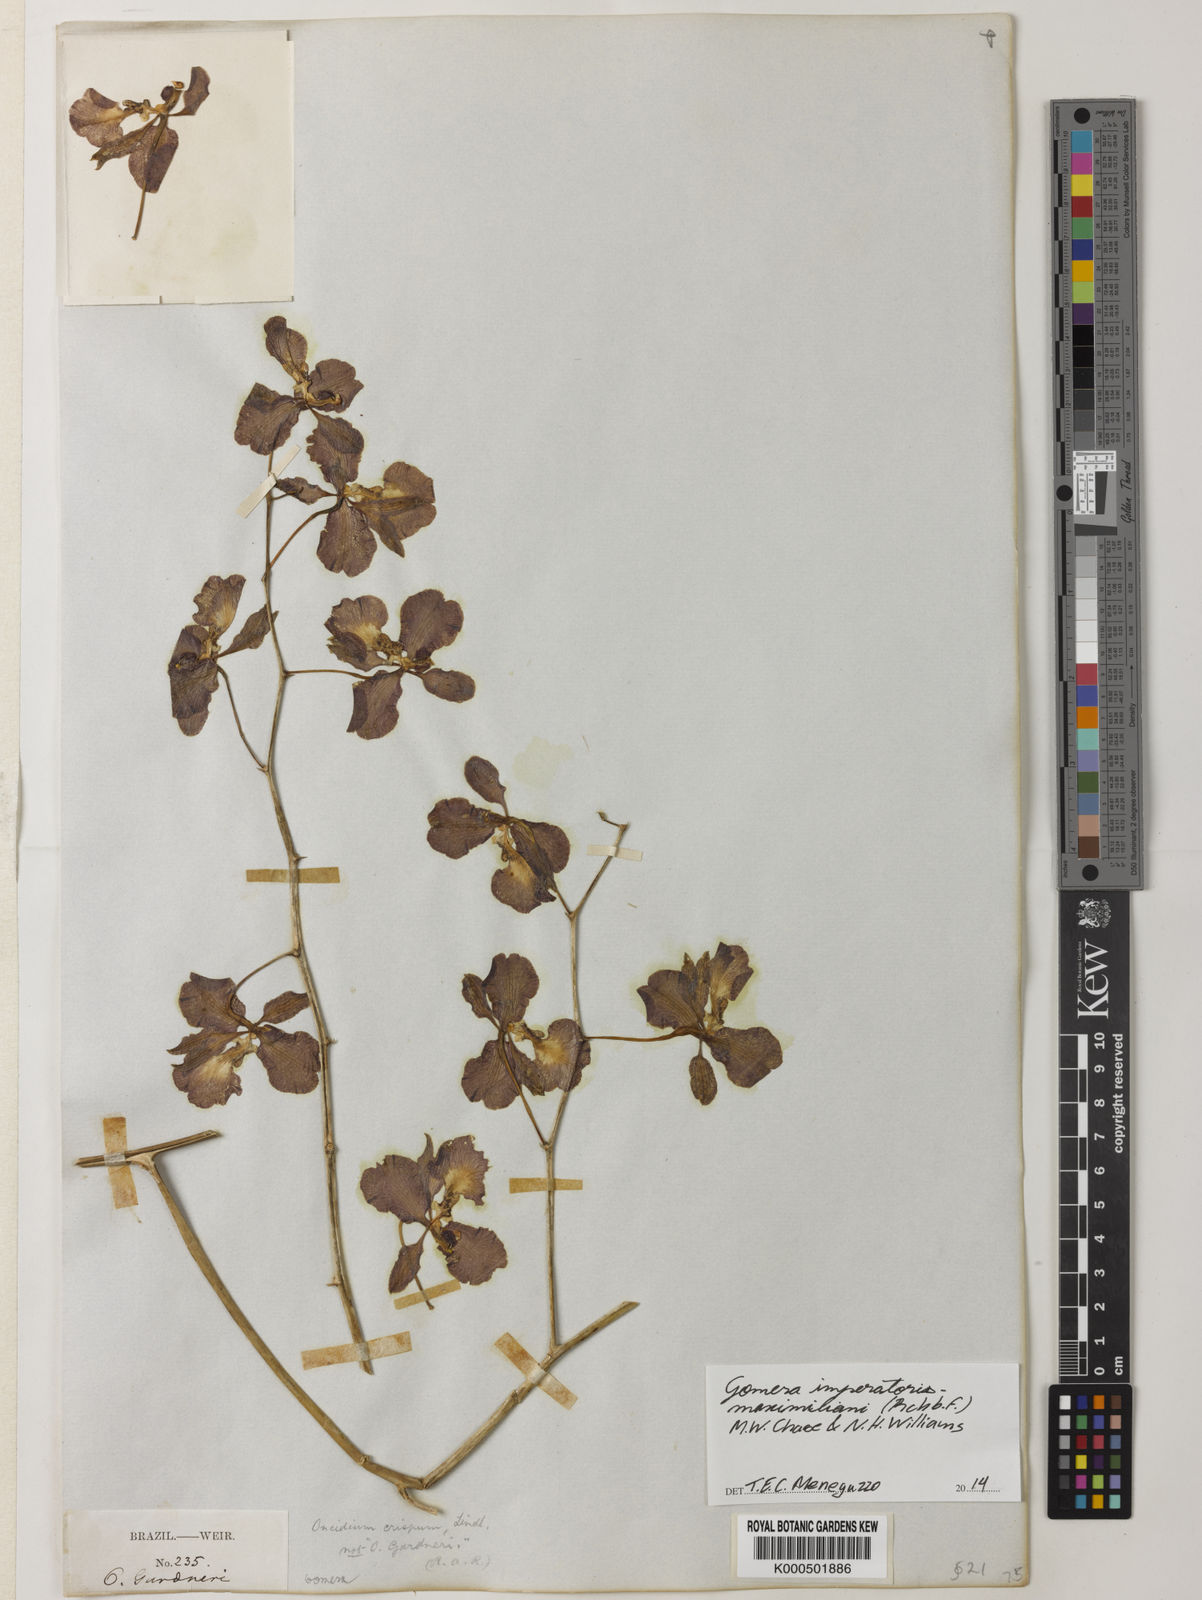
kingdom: Plantae
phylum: Tracheophyta
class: Liliopsida
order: Asparagales
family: Orchidaceae
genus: Gomesa
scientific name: Gomesa imperatoris-maximiliani
